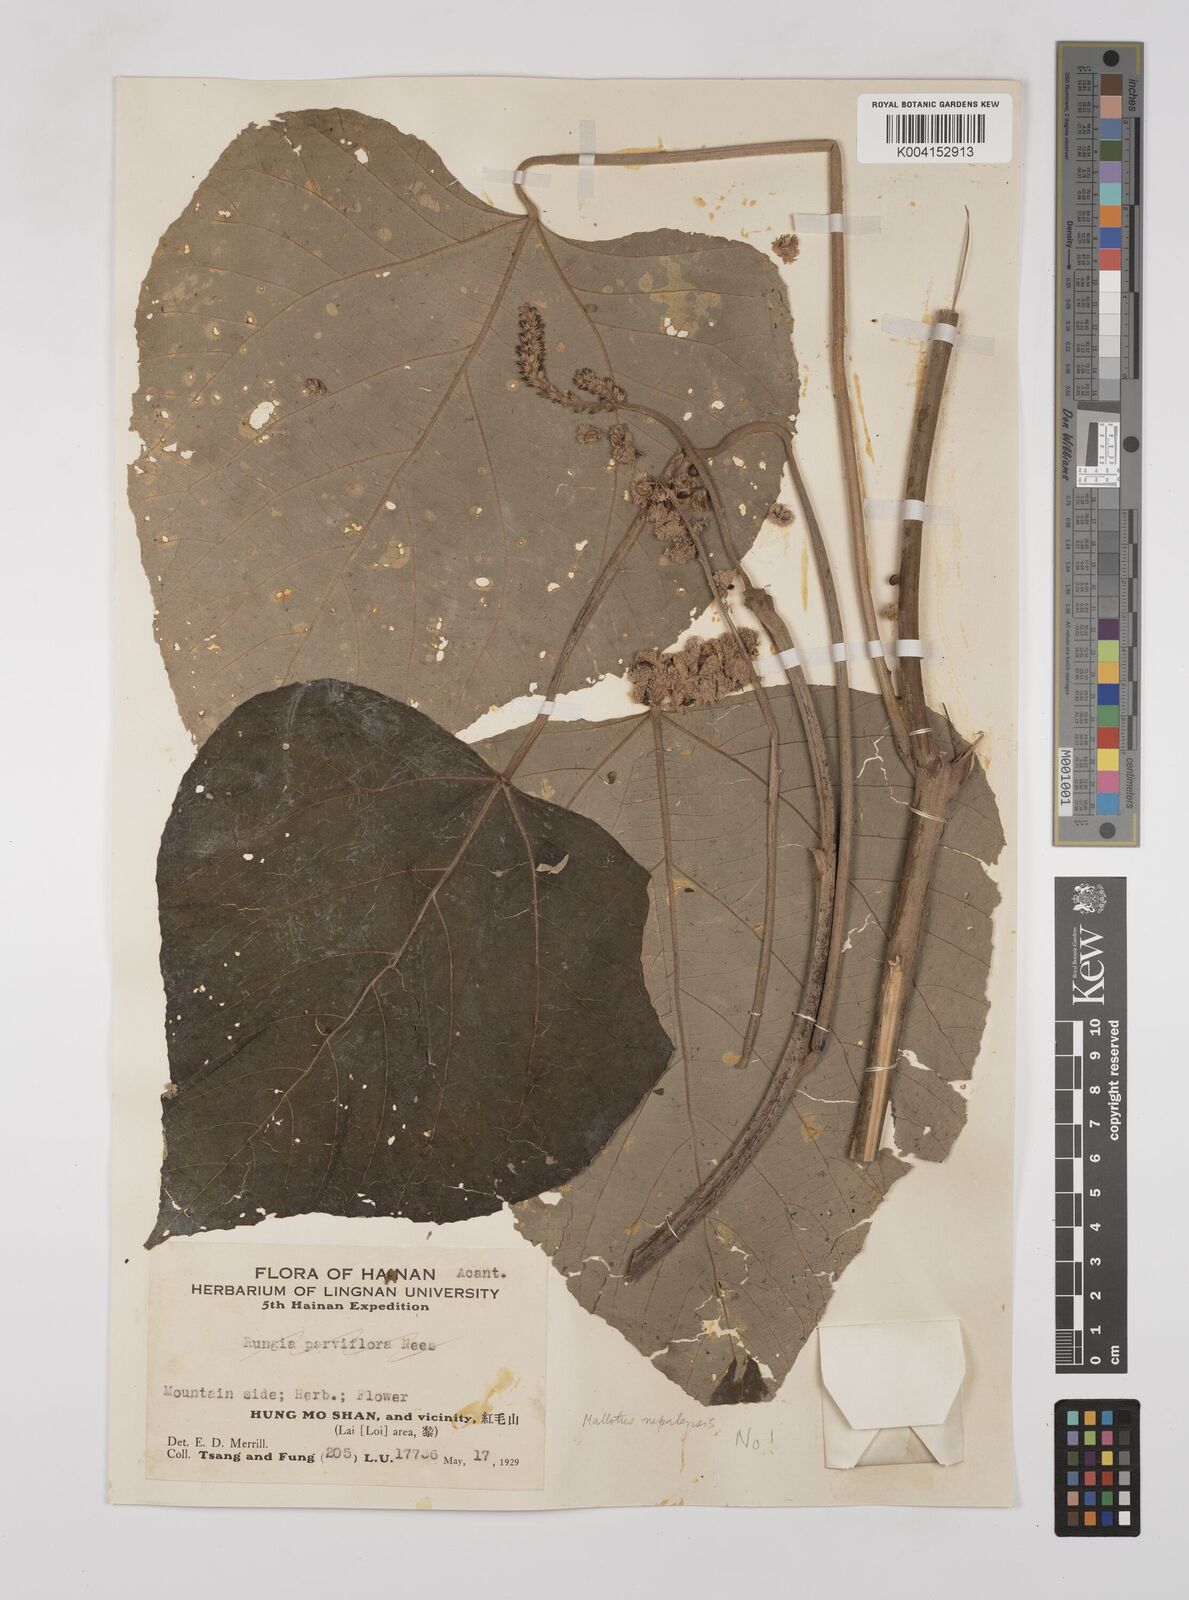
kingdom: Plantae
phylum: Tracheophyta
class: Magnoliopsida
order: Malpighiales
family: Euphorbiaceae
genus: Mallotus
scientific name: Mallotus
